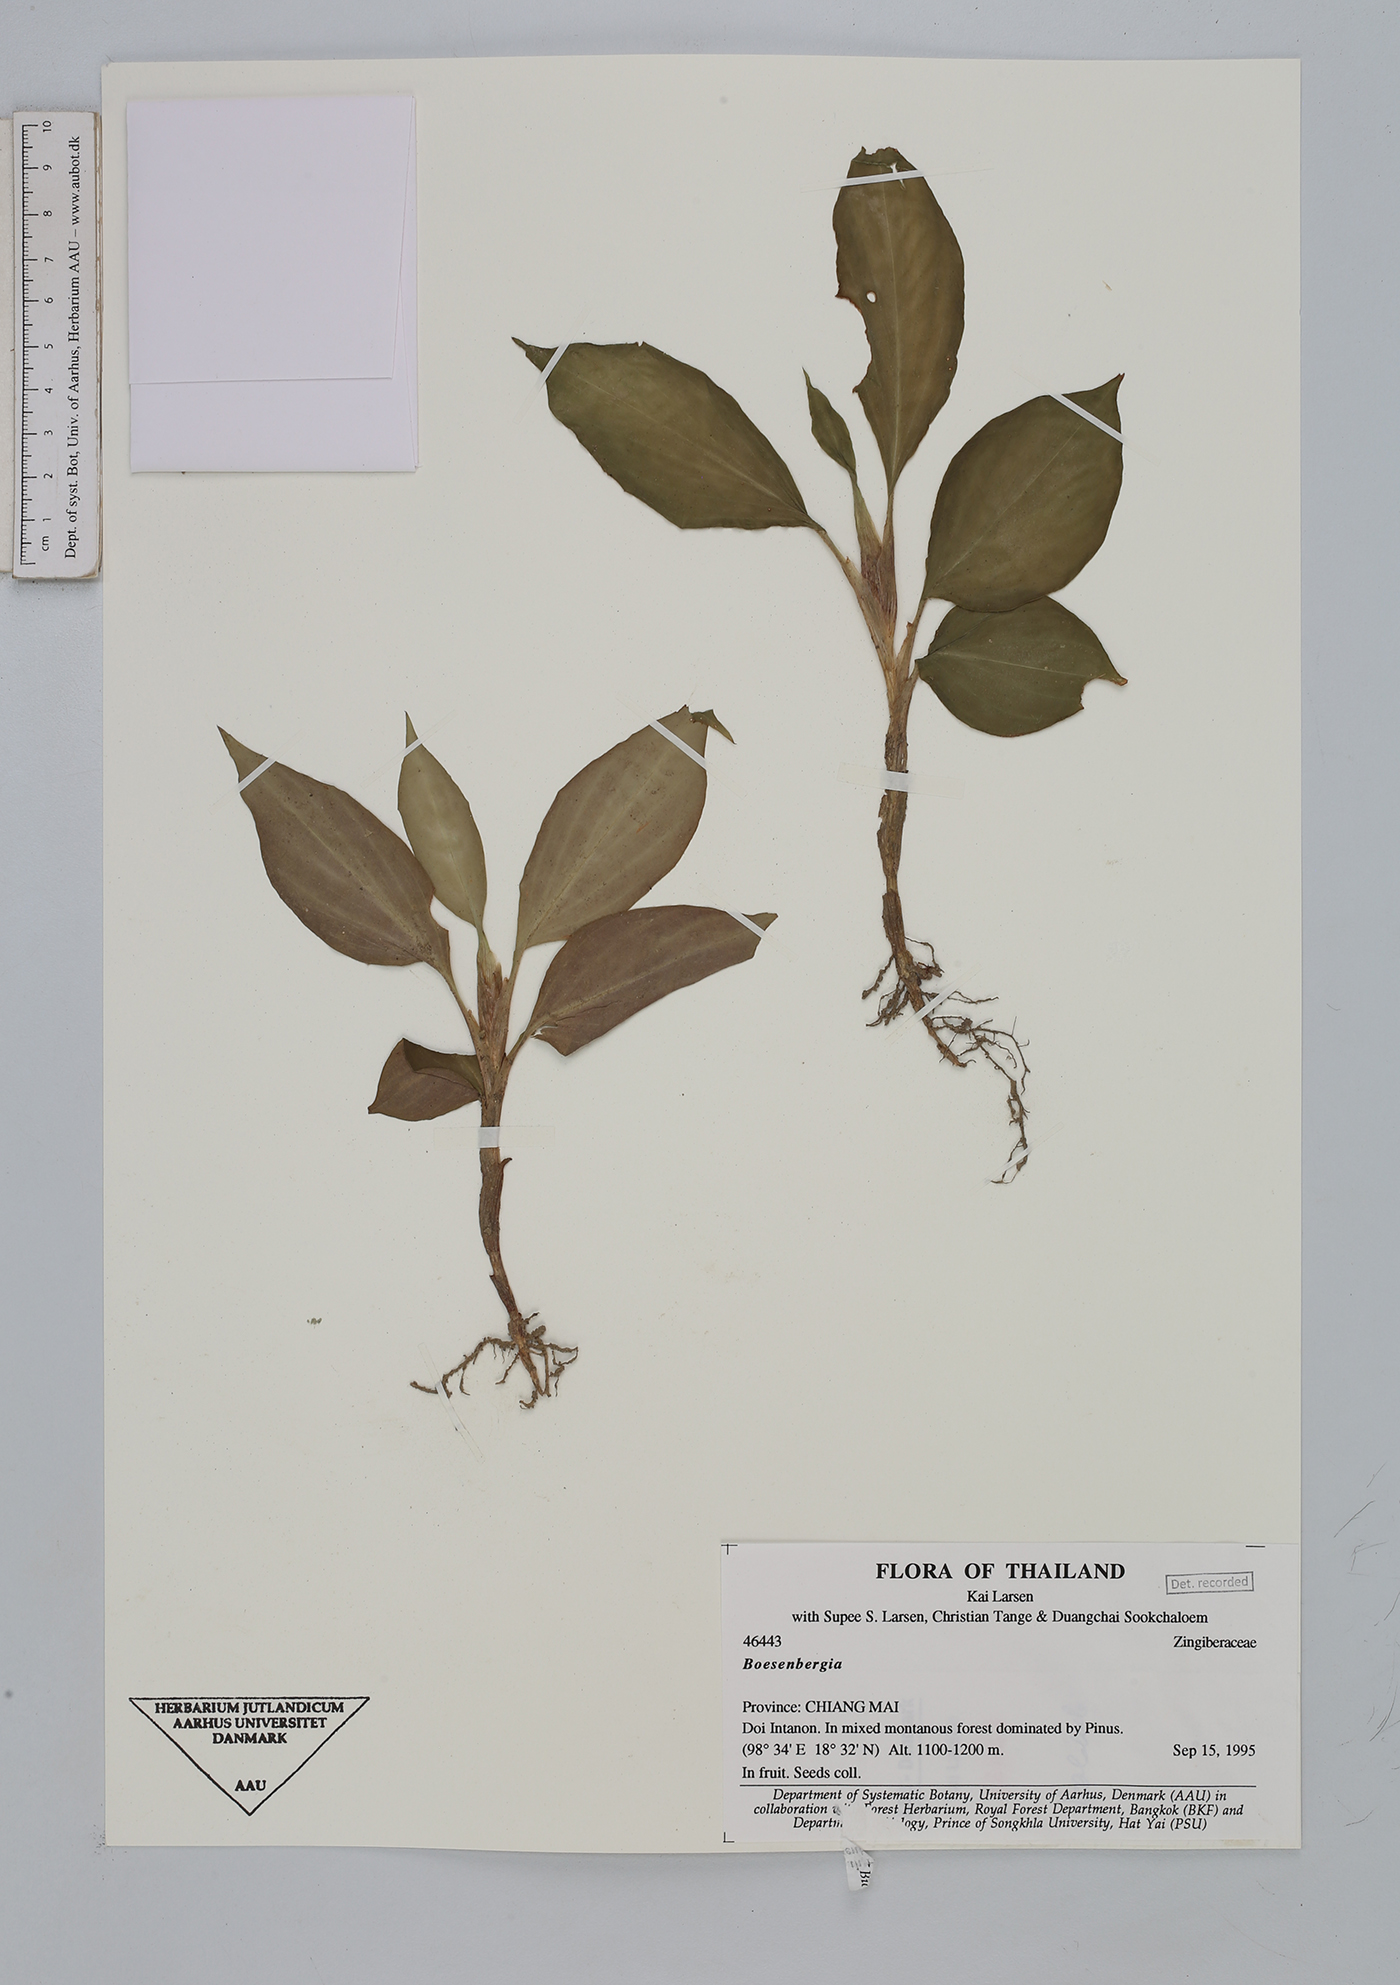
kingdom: Plantae
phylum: Tracheophyta
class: Liliopsida
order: Zingiberales
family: Zingiberaceae
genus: Boesenbergia
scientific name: Boesenbergia
